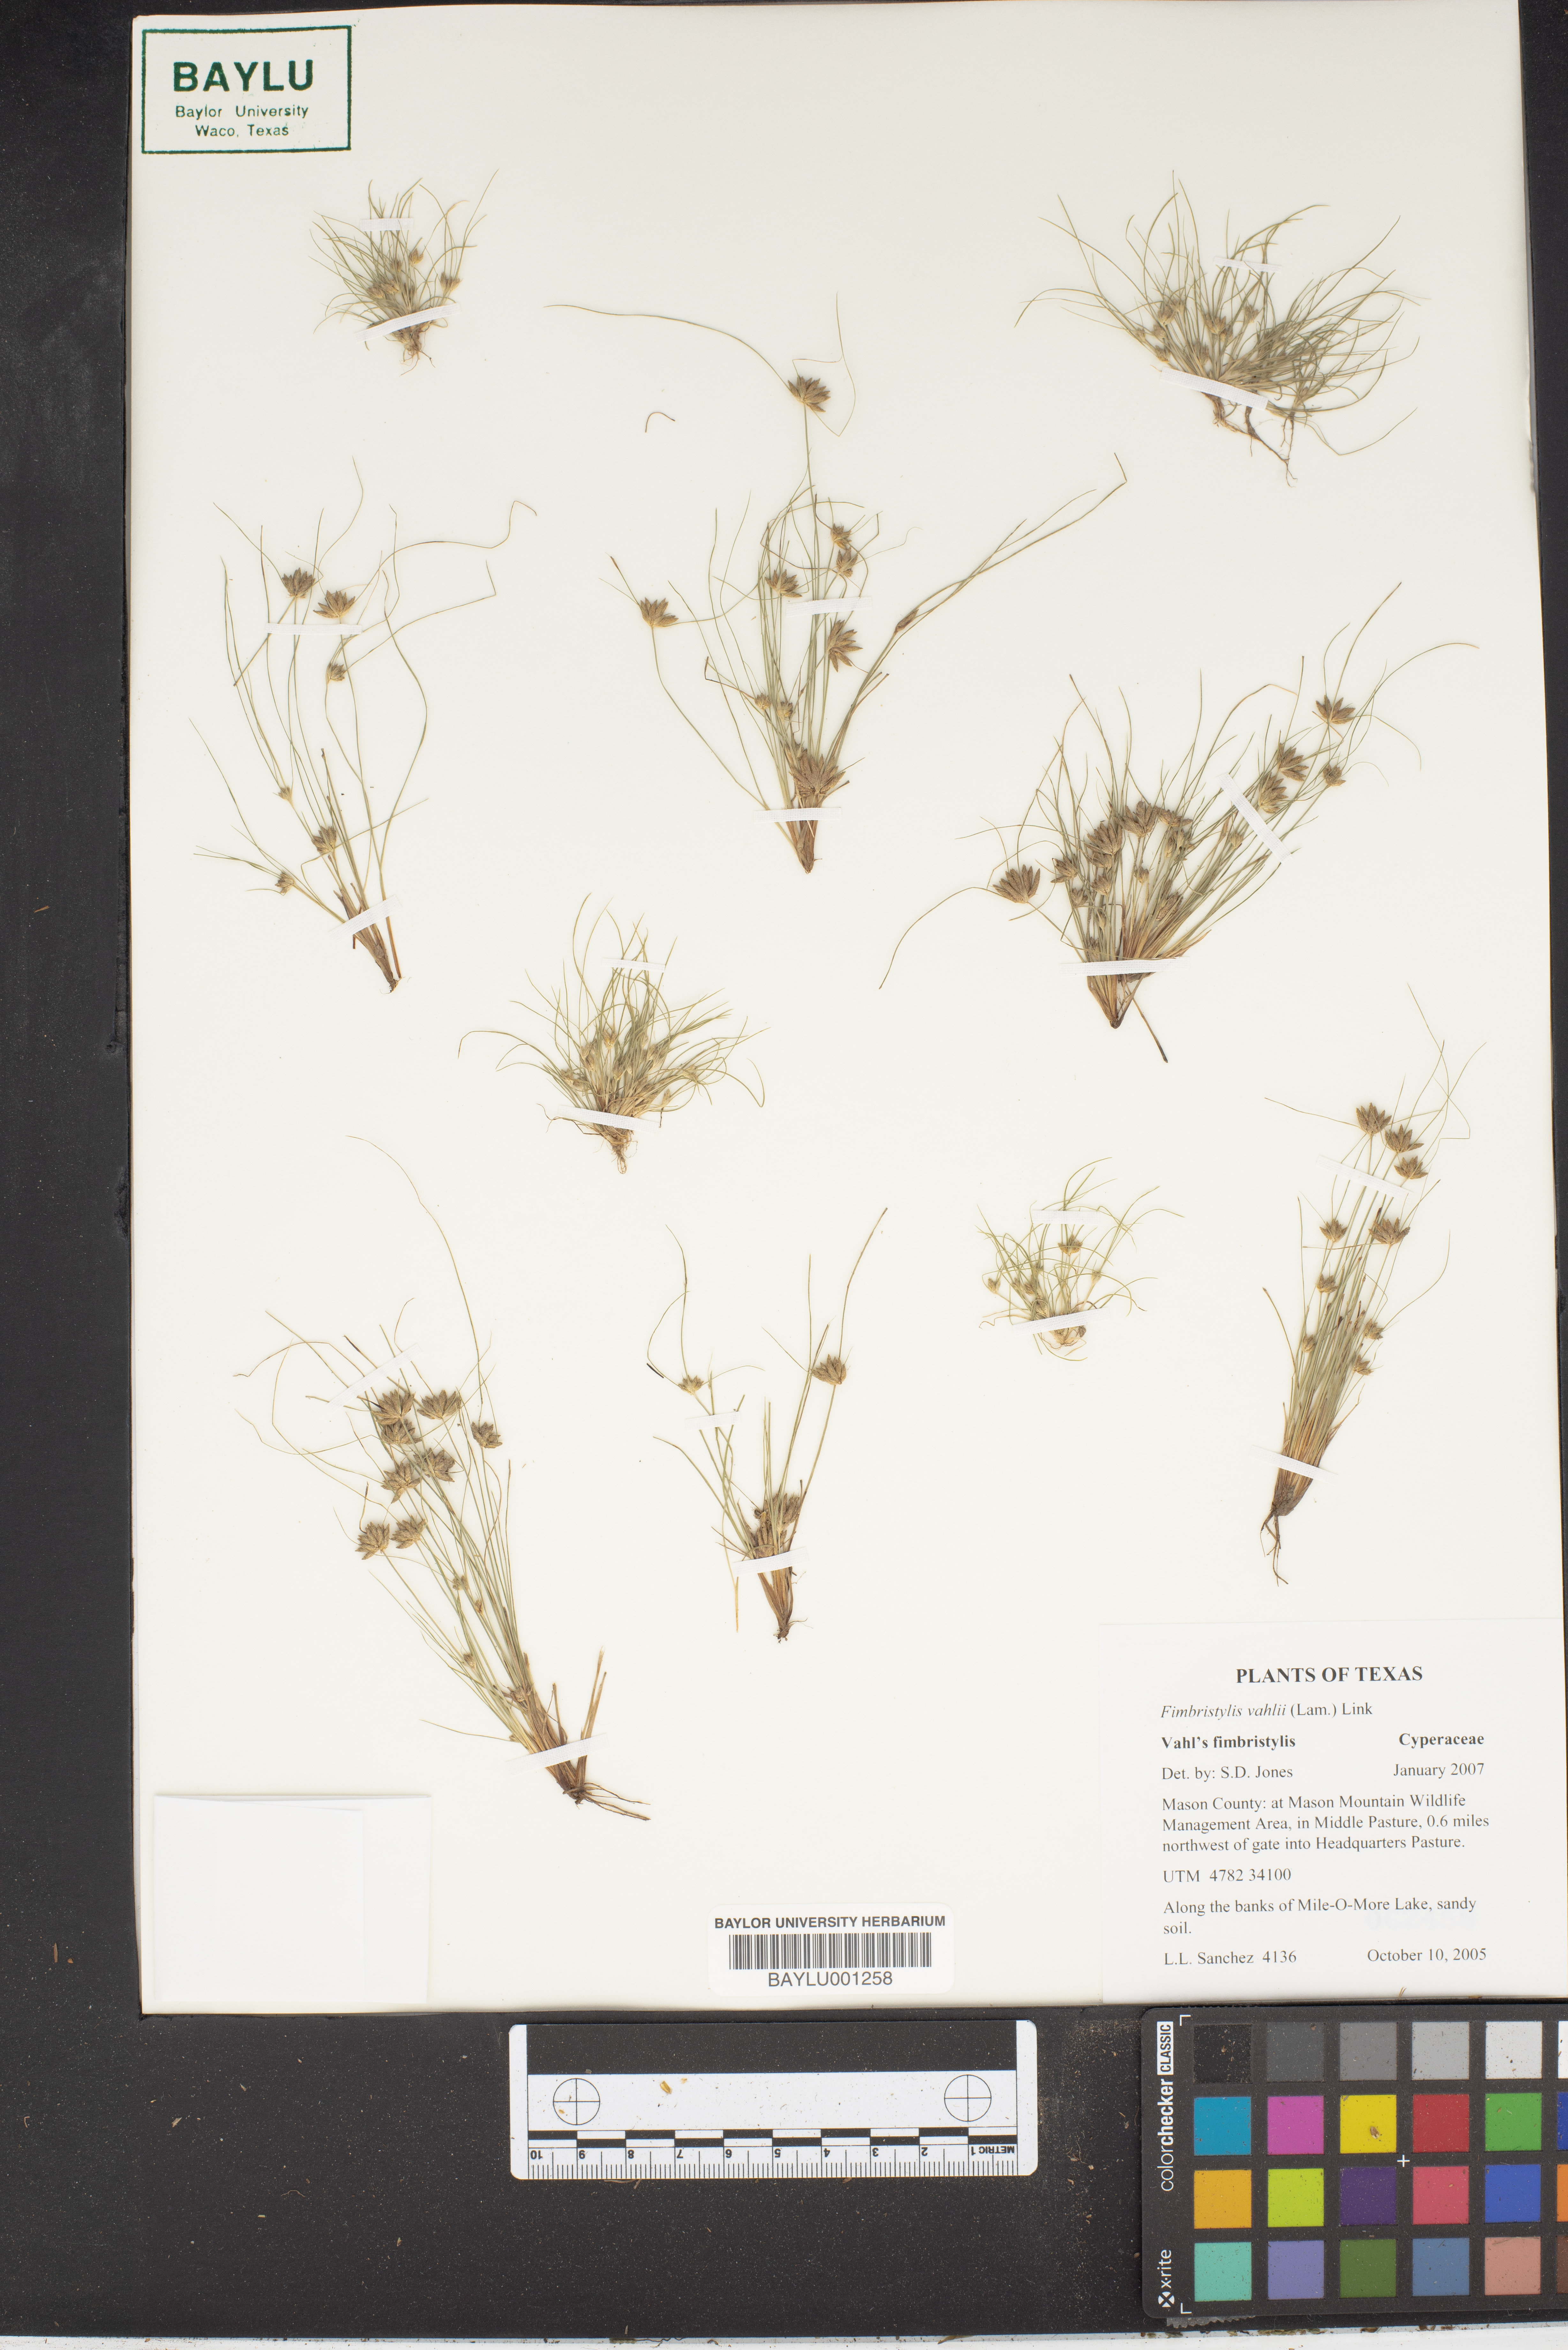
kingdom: Plantae
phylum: Tracheophyta
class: Liliopsida
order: Poales
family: Cyperaceae
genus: Fimbristylis
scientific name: Fimbristylis vahlii
